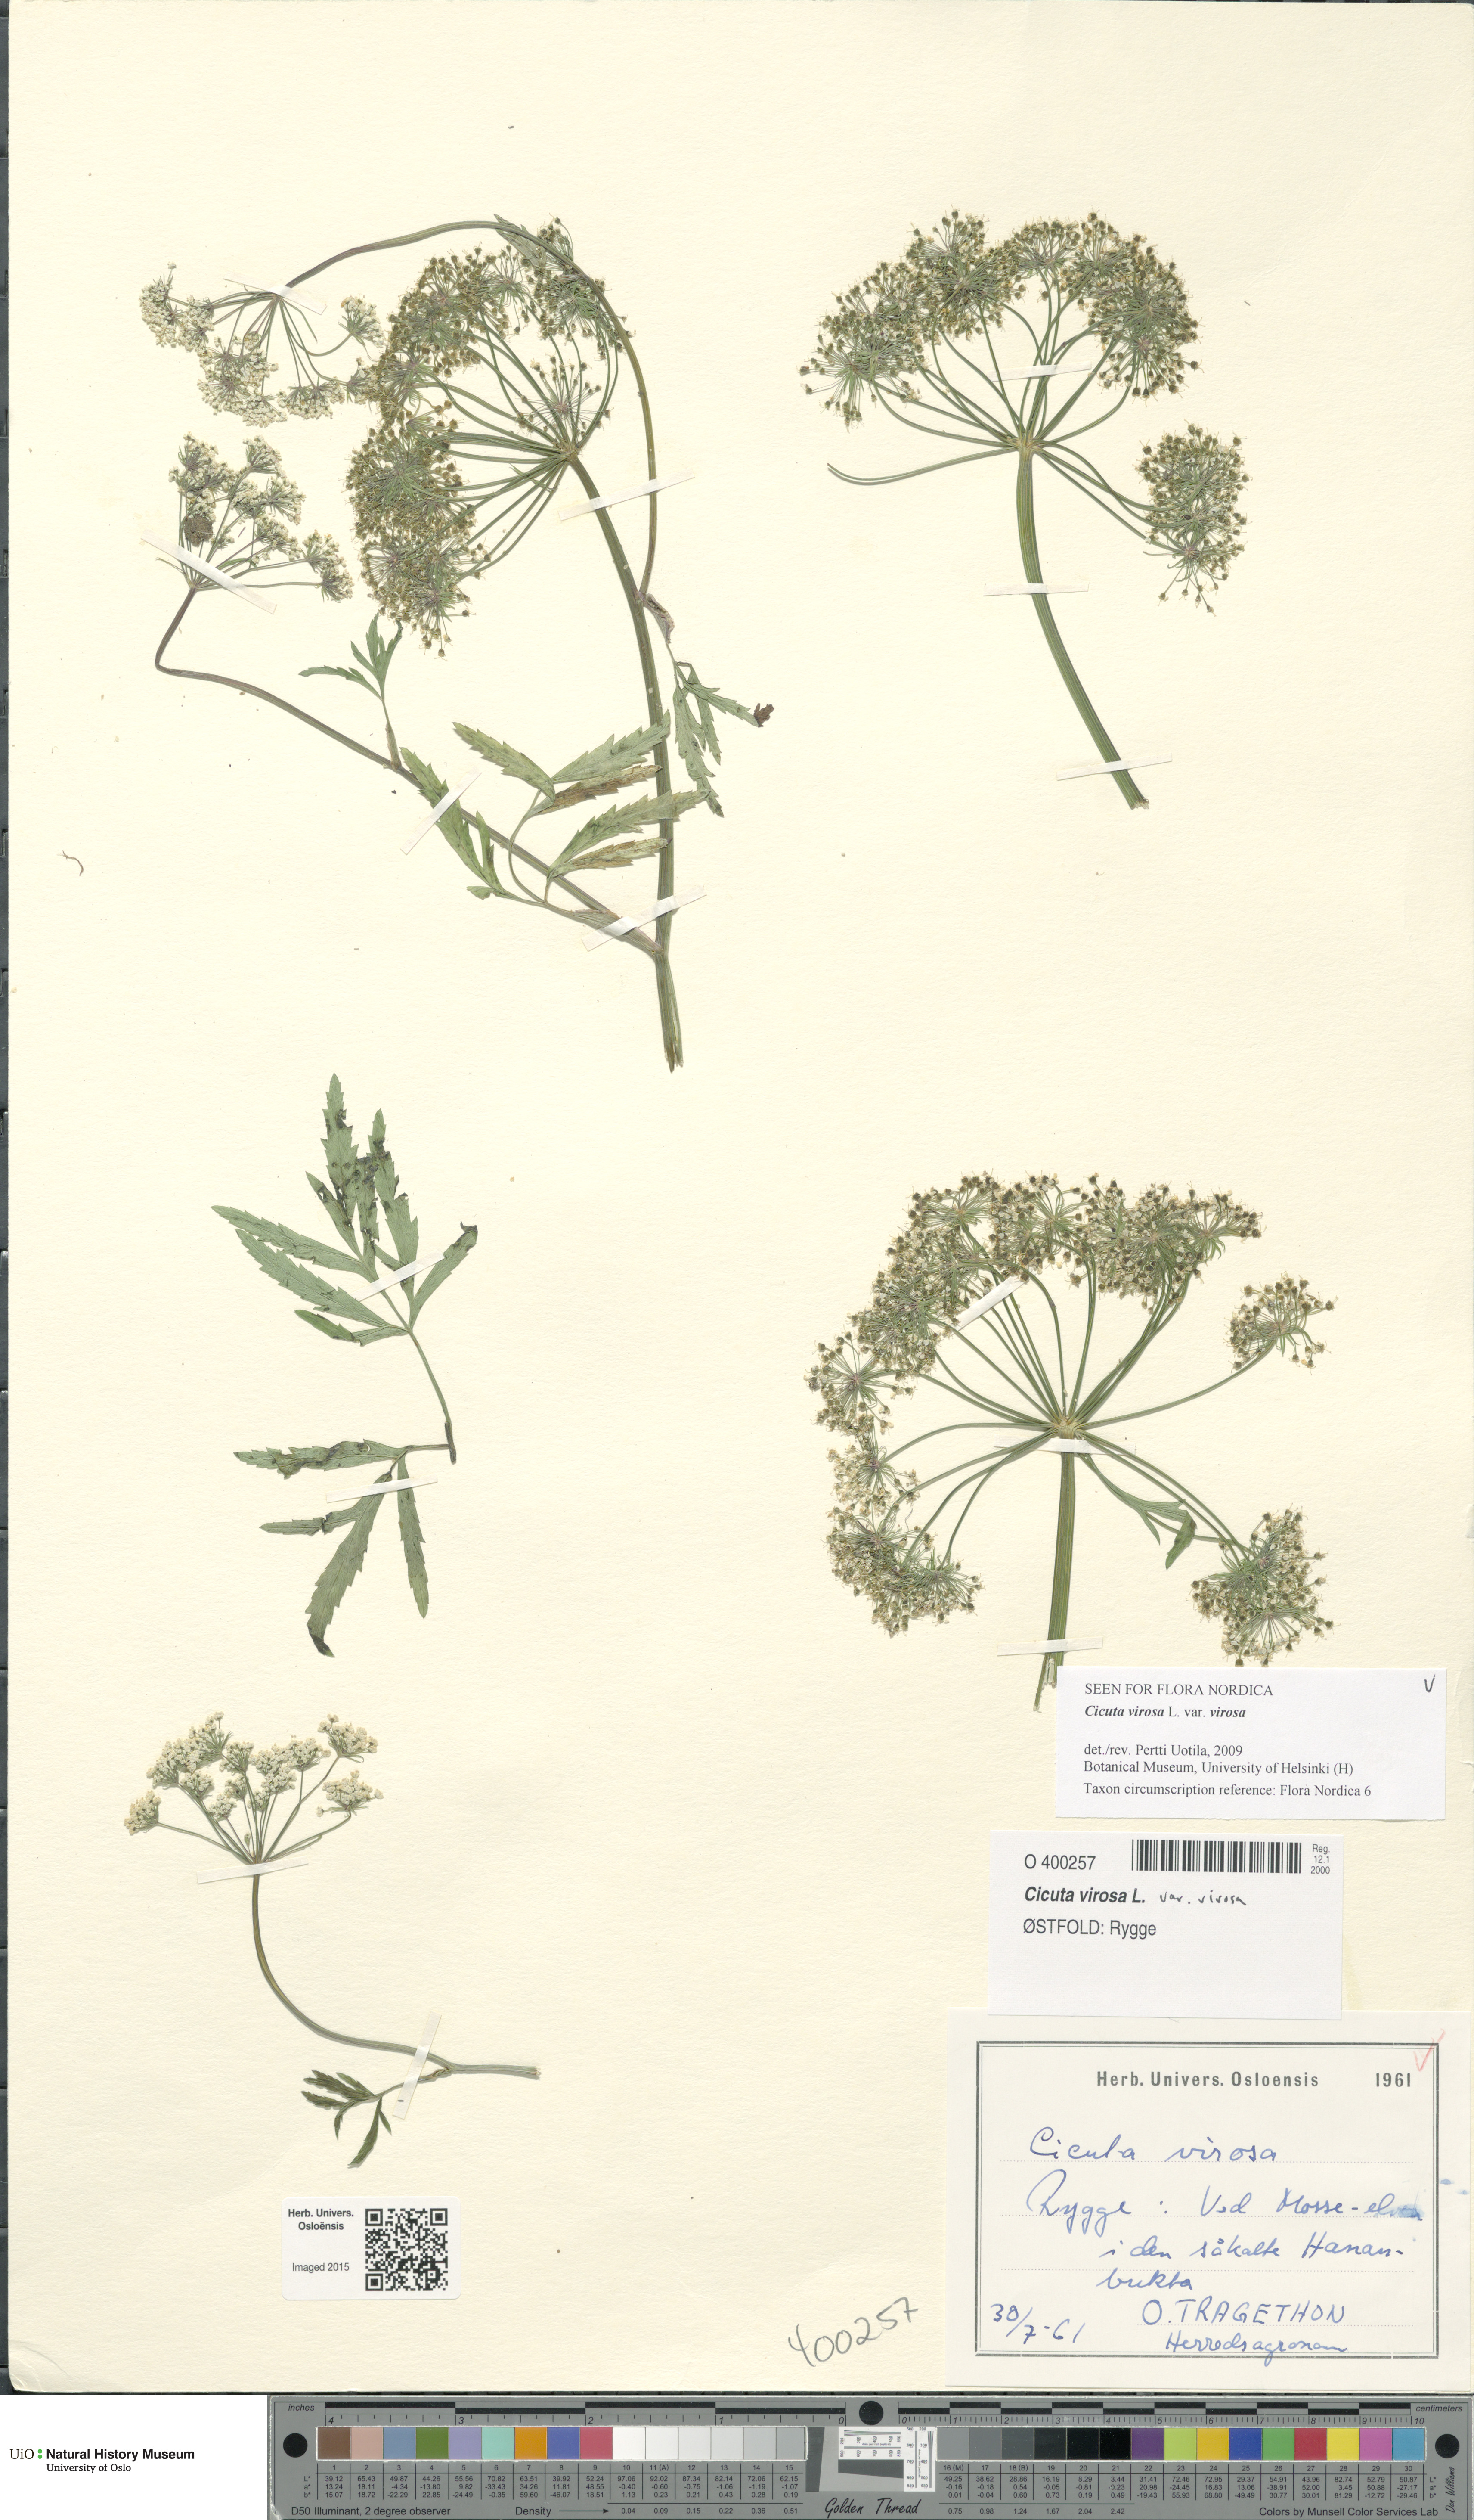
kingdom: Plantae
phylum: Tracheophyta
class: Magnoliopsida
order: Apiales
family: Apiaceae
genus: Cicuta
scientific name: Cicuta virosa
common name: Cowbane
